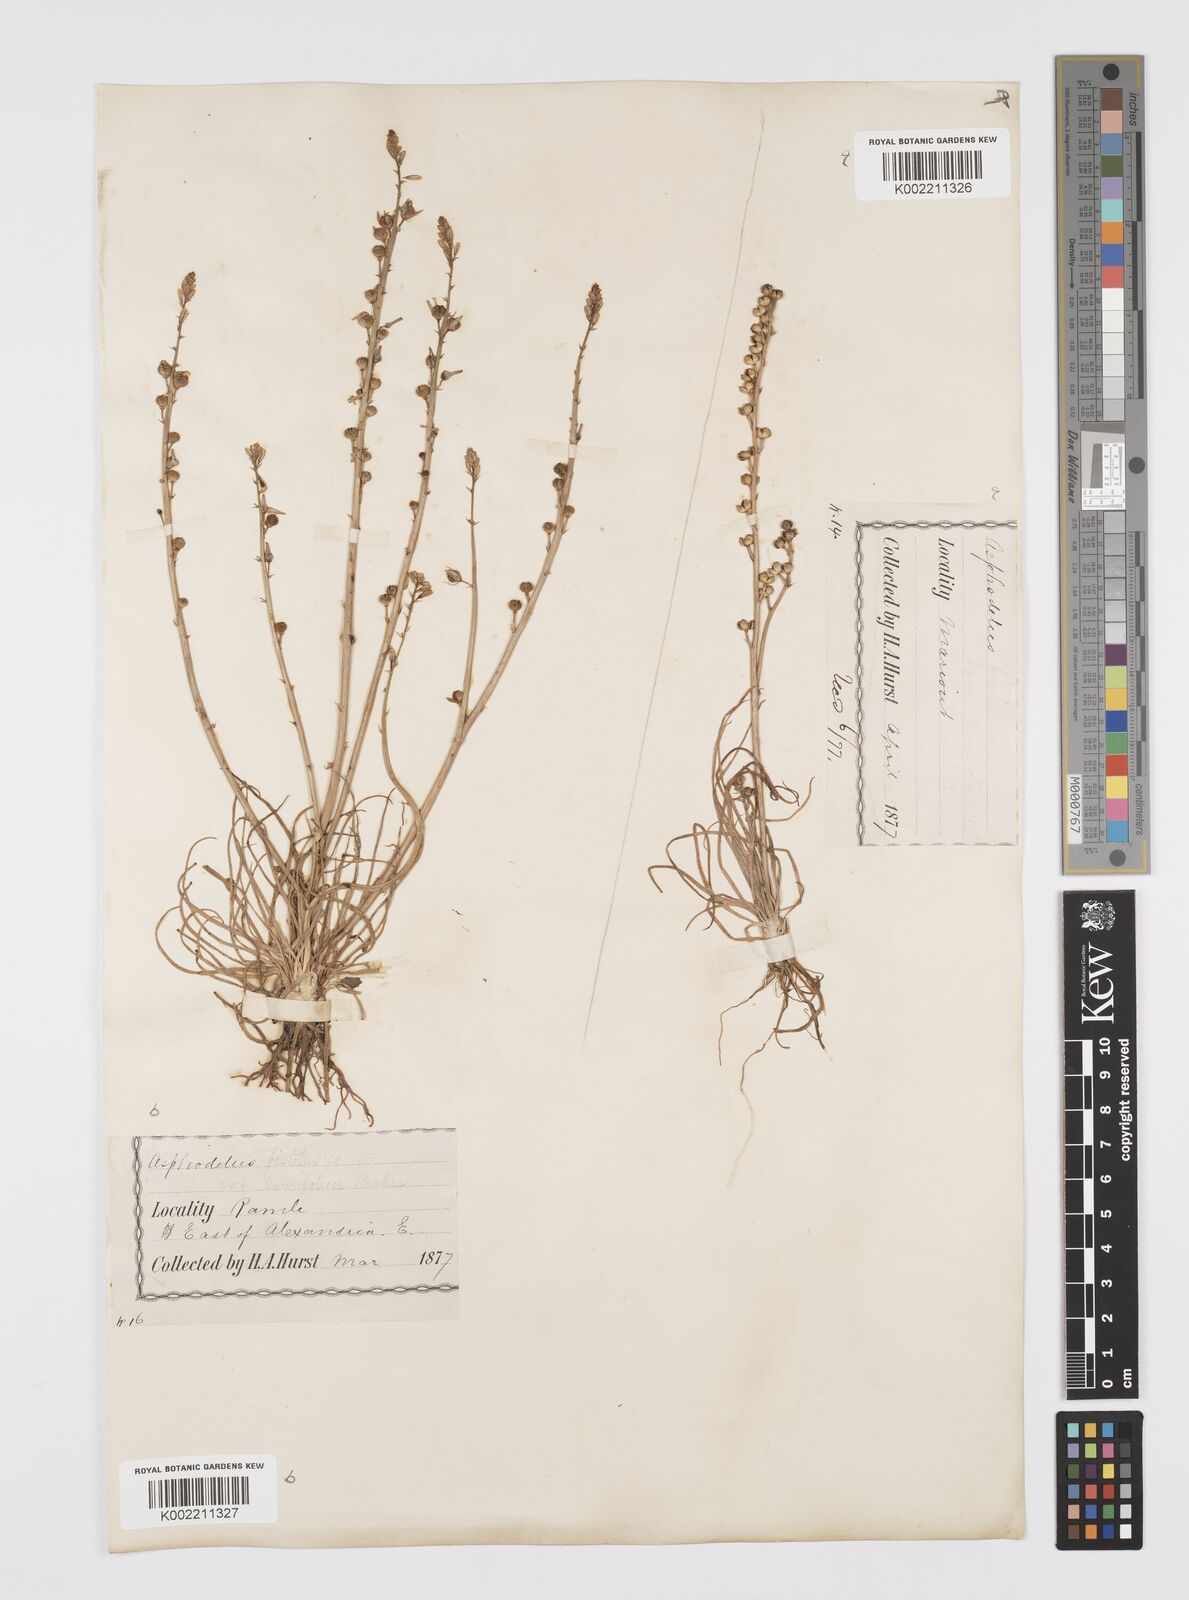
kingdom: Plantae
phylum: Tracheophyta
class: Liliopsida
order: Asparagales
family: Asphodelaceae
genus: Asphodelus
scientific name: Asphodelus tenuifolius
